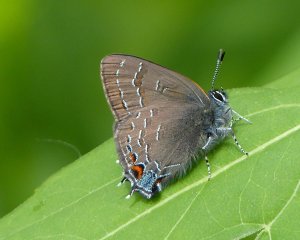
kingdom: Animalia
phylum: Arthropoda
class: Insecta
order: Lepidoptera
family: Lycaenidae
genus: Satyrium
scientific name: Satyrium calanus
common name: Banded Hairstreak
